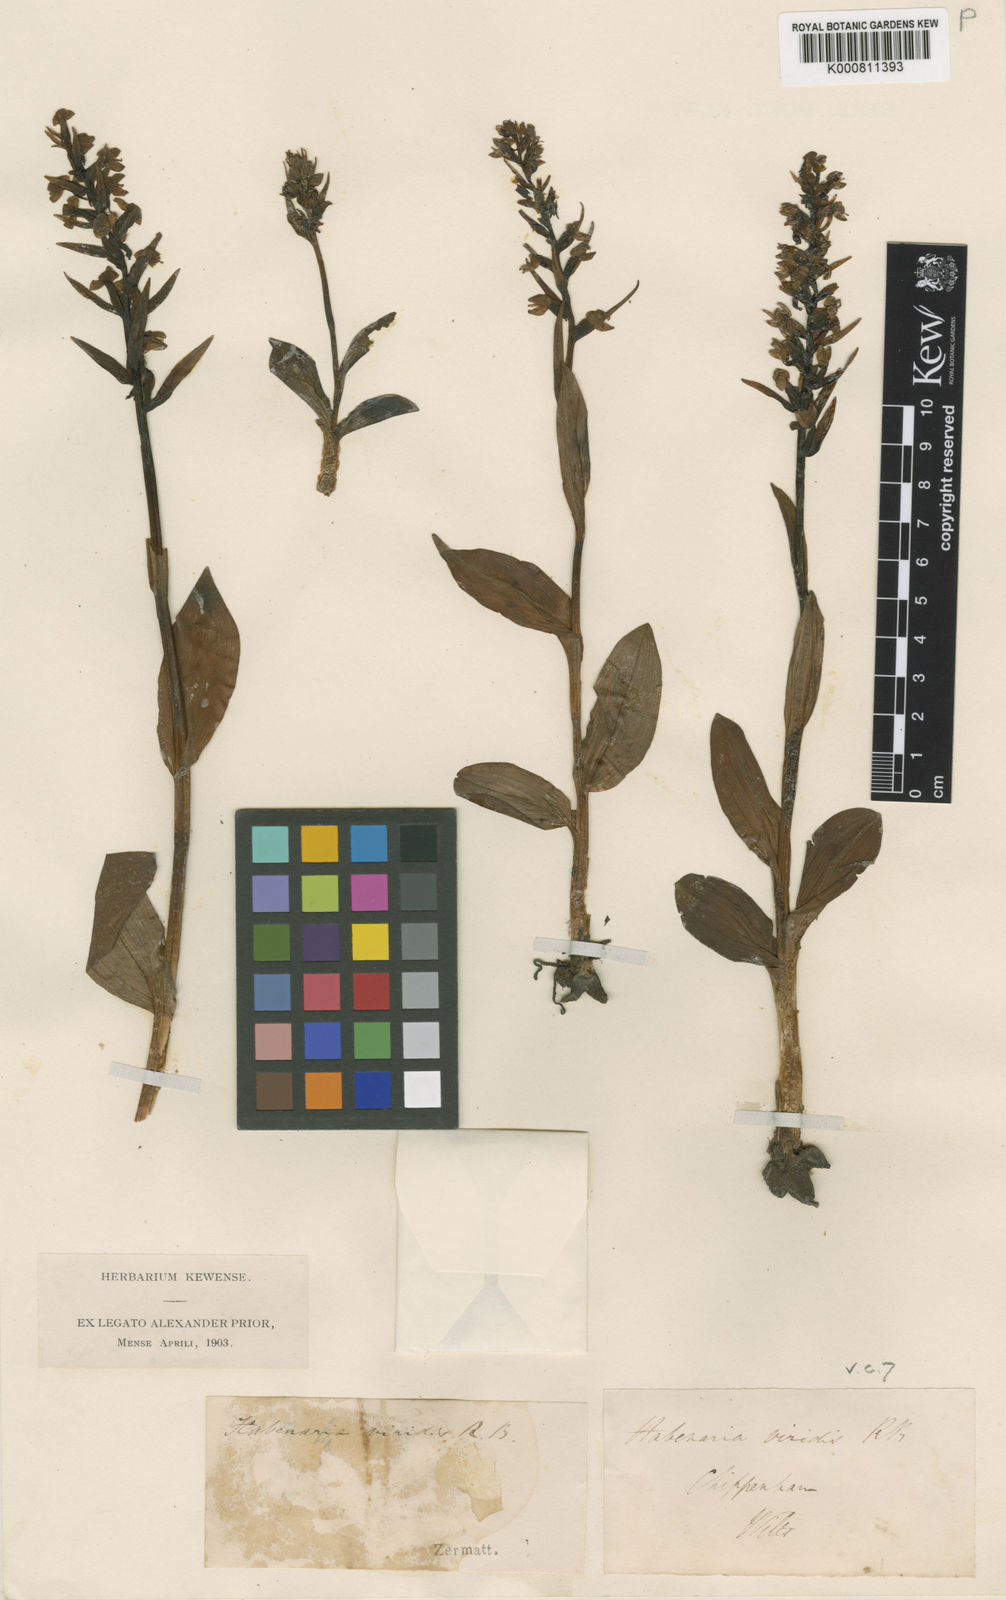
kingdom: Plantae
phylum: Tracheophyta
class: Liliopsida
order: Asparagales
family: Orchidaceae
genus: Dactylorhiza
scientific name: Dactylorhiza viridis
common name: Longbract frog orchid
